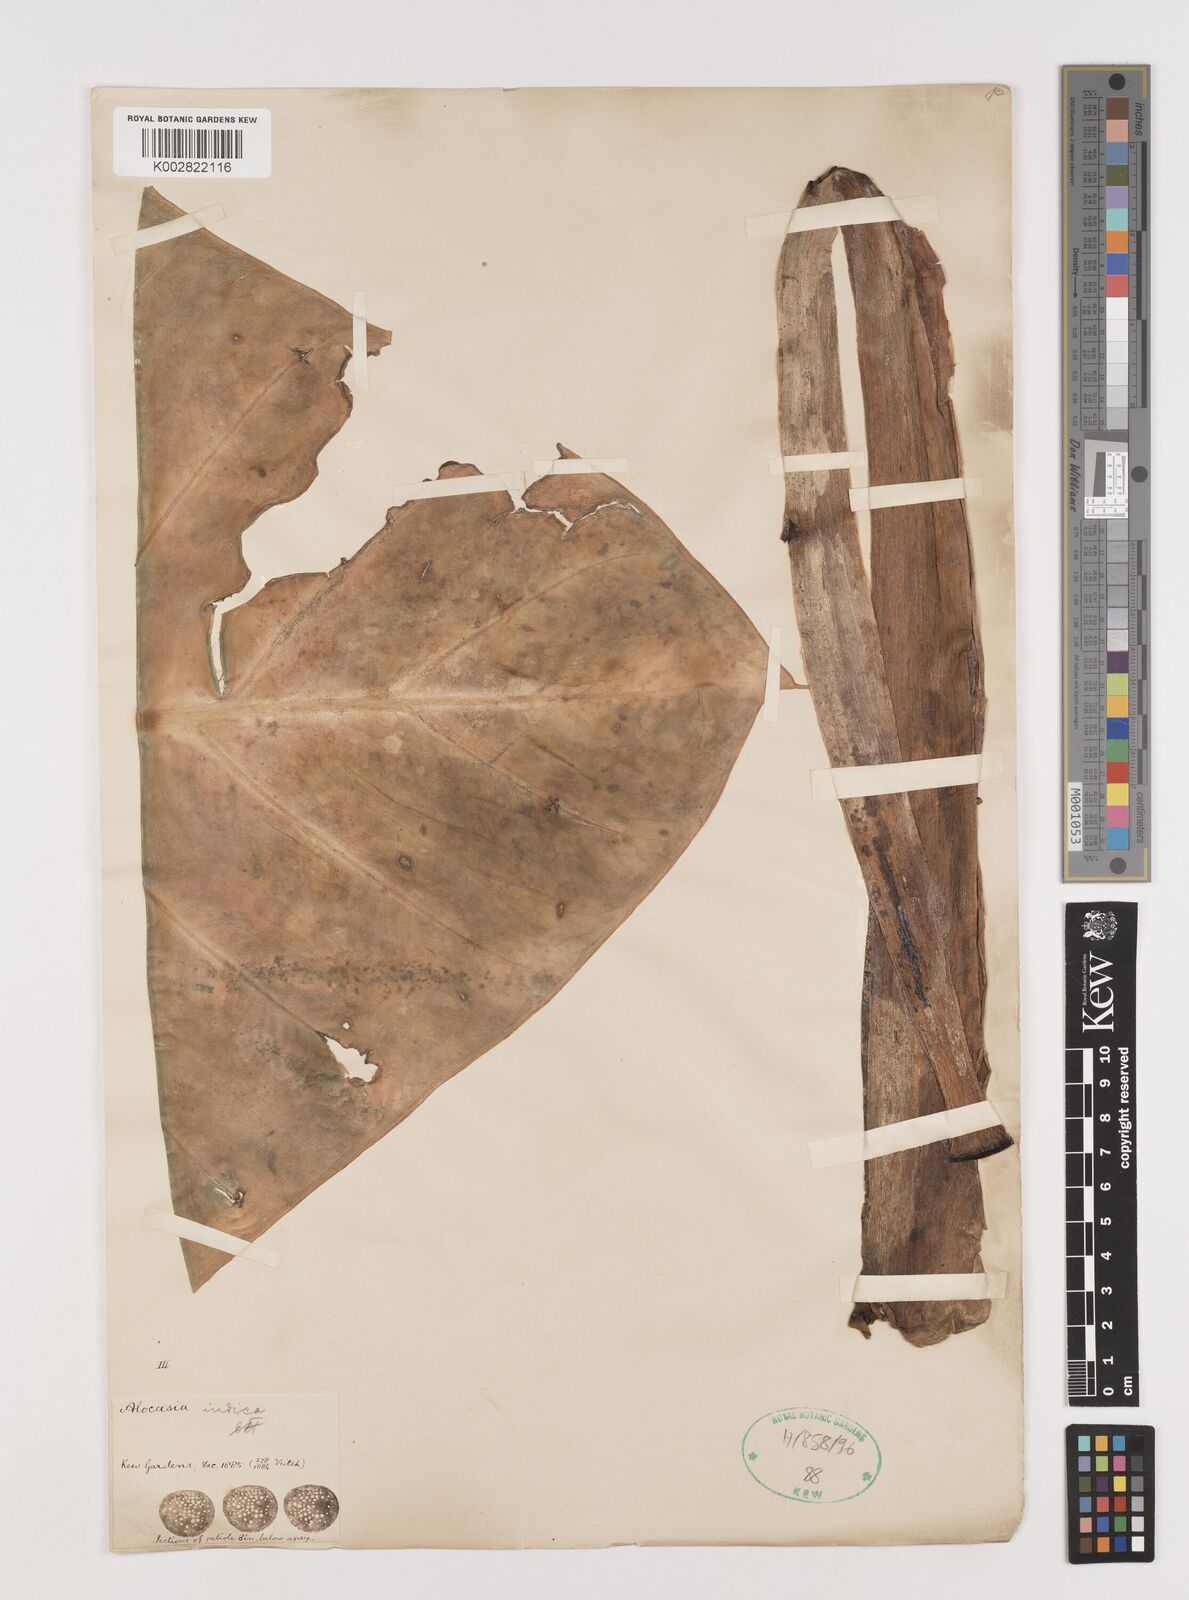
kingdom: Plantae
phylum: Tracheophyta
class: Liliopsida
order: Alismatales
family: Araceae
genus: Alocasia
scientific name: Alocasia macrorrhizos
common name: Giant taro
